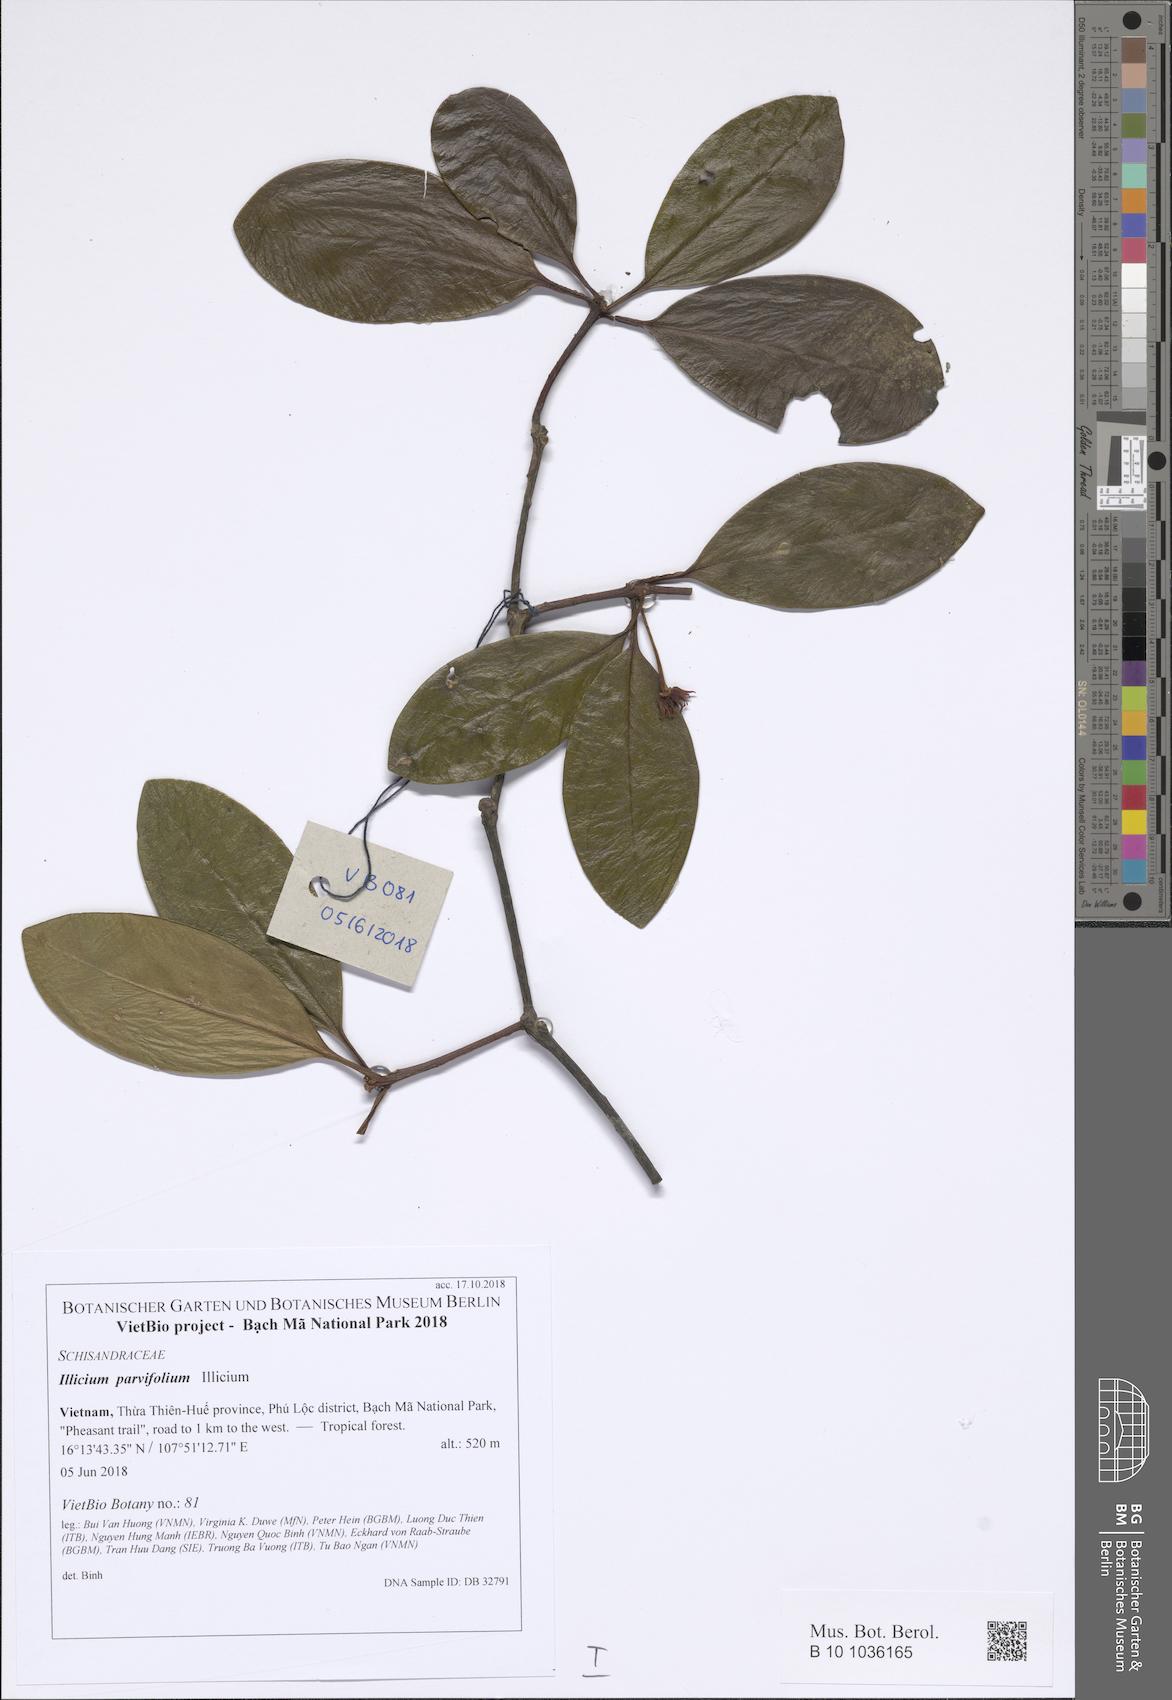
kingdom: Plantae
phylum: Tracheophyta
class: Magnoliopsida
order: Austrobaileyales
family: Schisandraceae
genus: Illicium
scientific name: Illicium parvifolium
